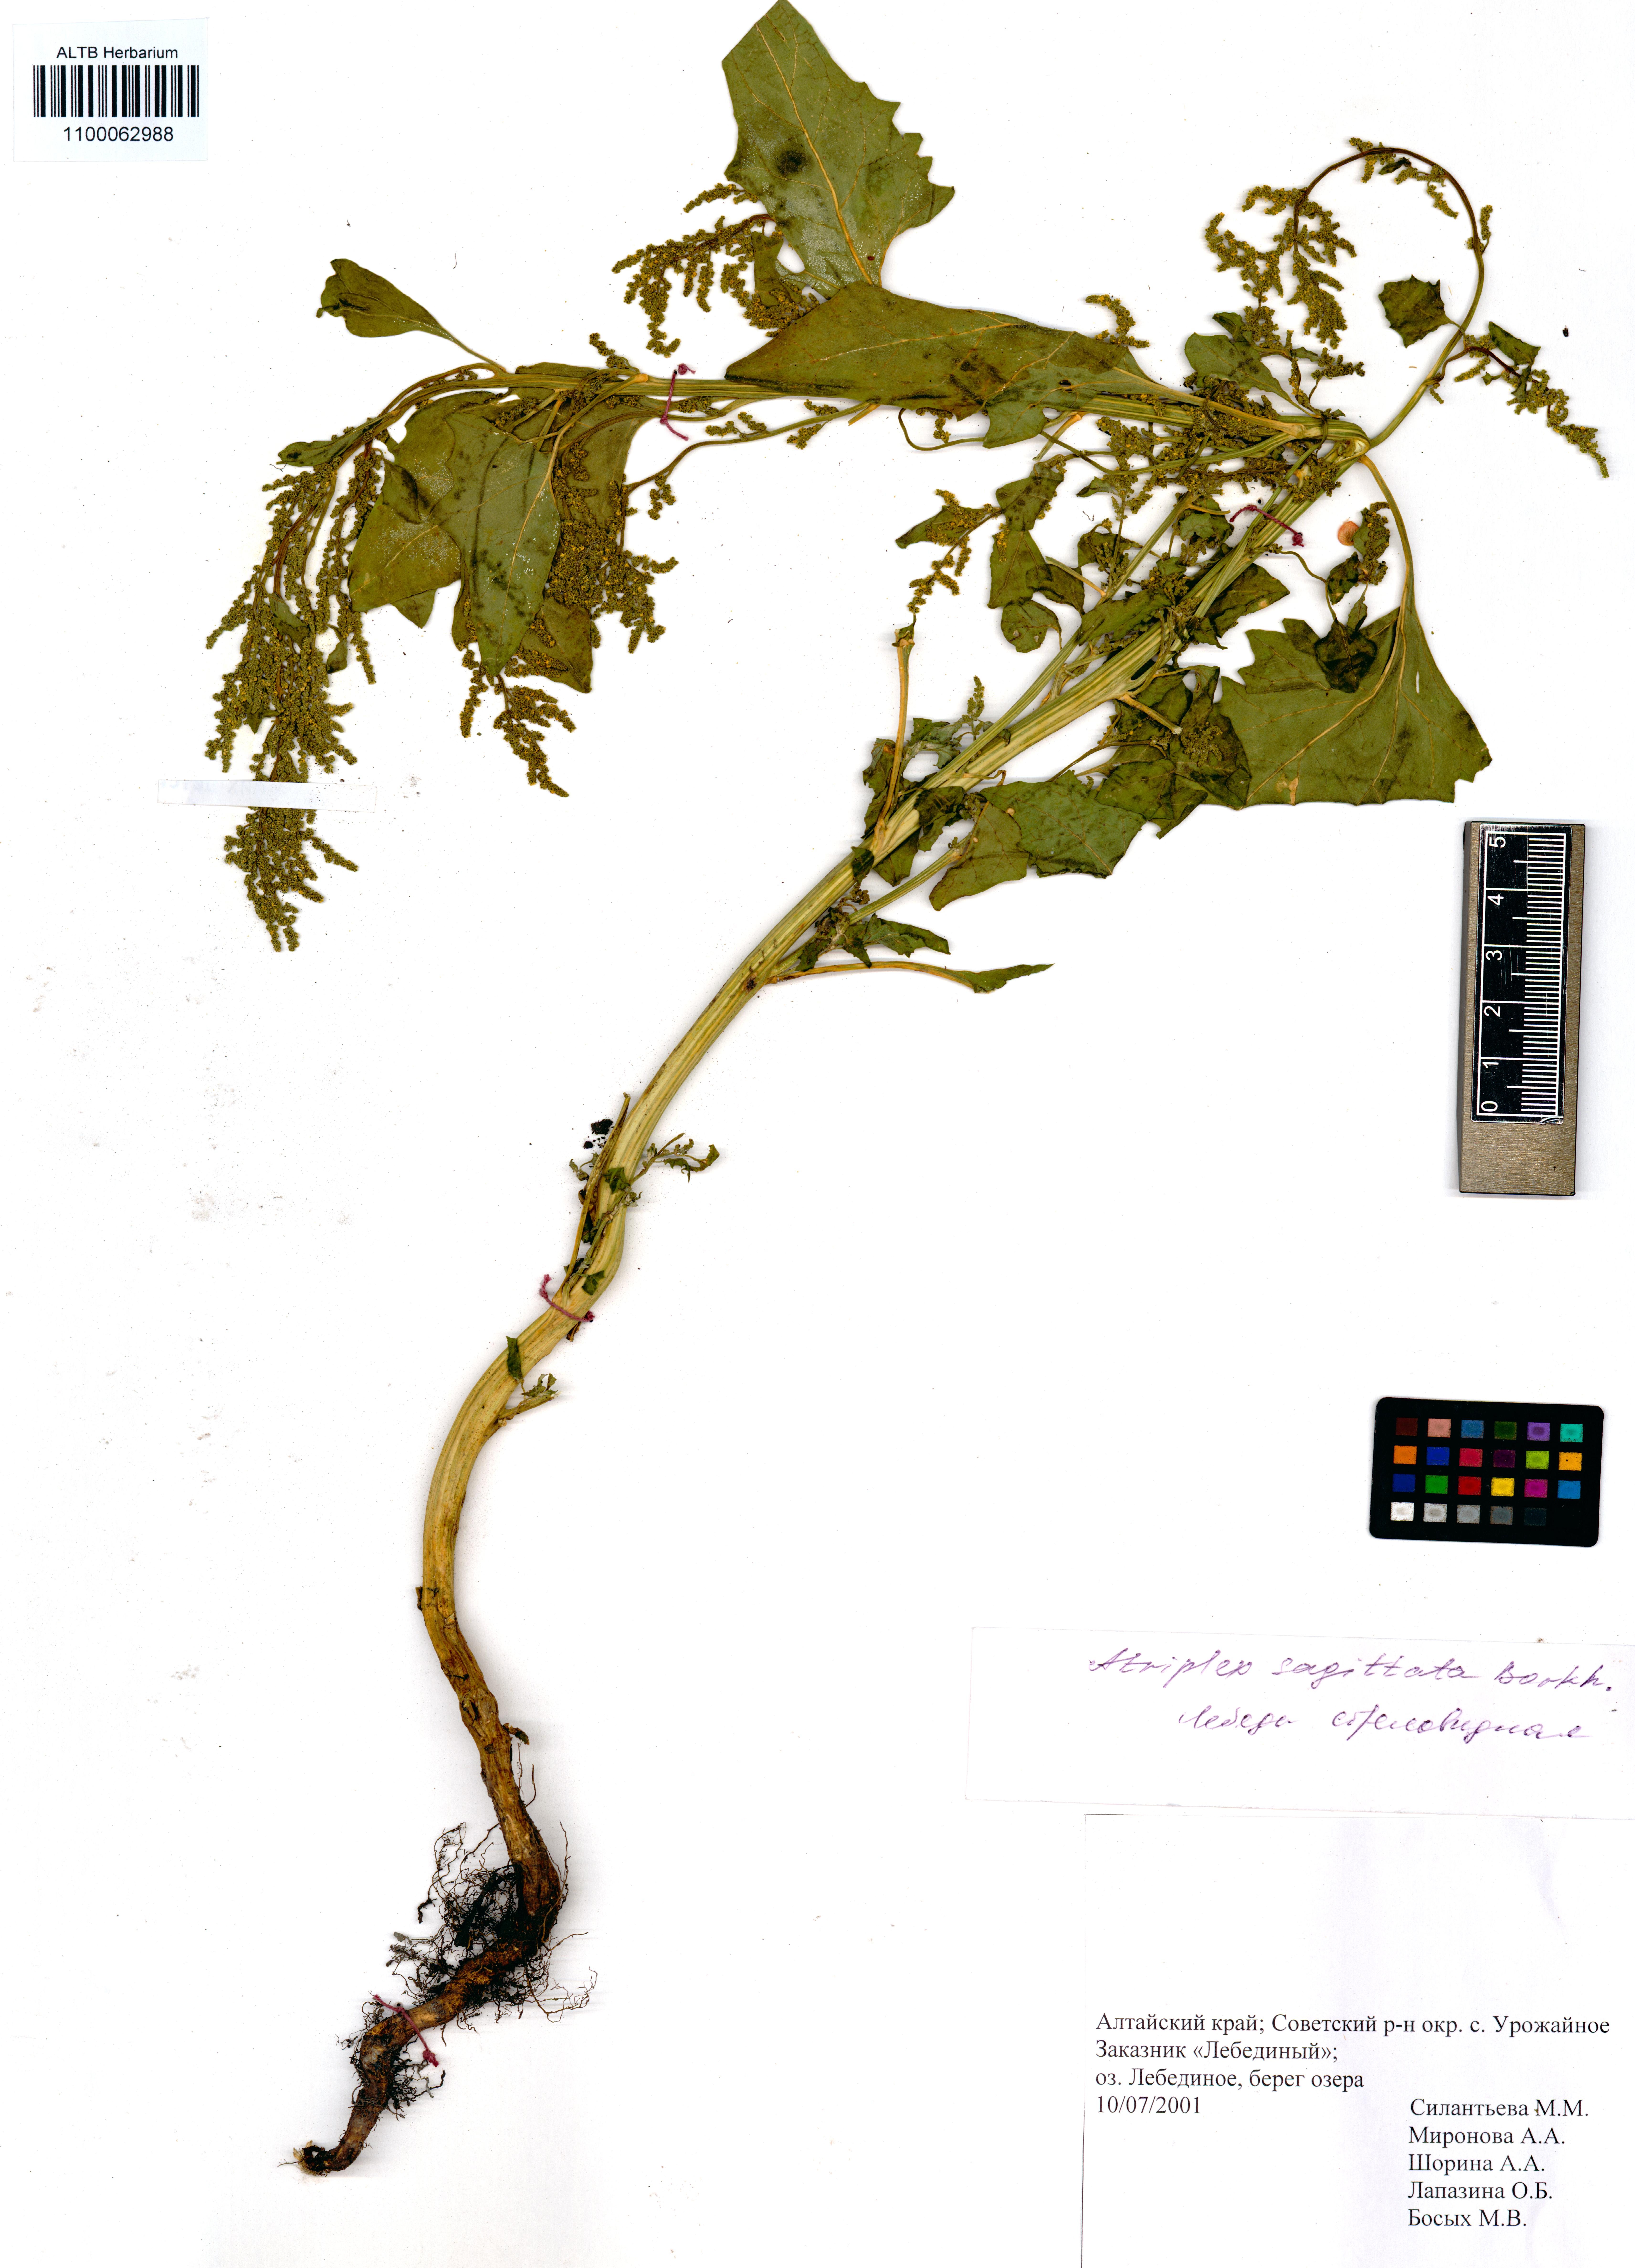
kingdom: Plantae
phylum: Tracheophyta
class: Magnoliopsida
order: Caryophyllales
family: Amaranthaceae
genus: Atriplex
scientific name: Atriplex sagittata
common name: Purple orache
